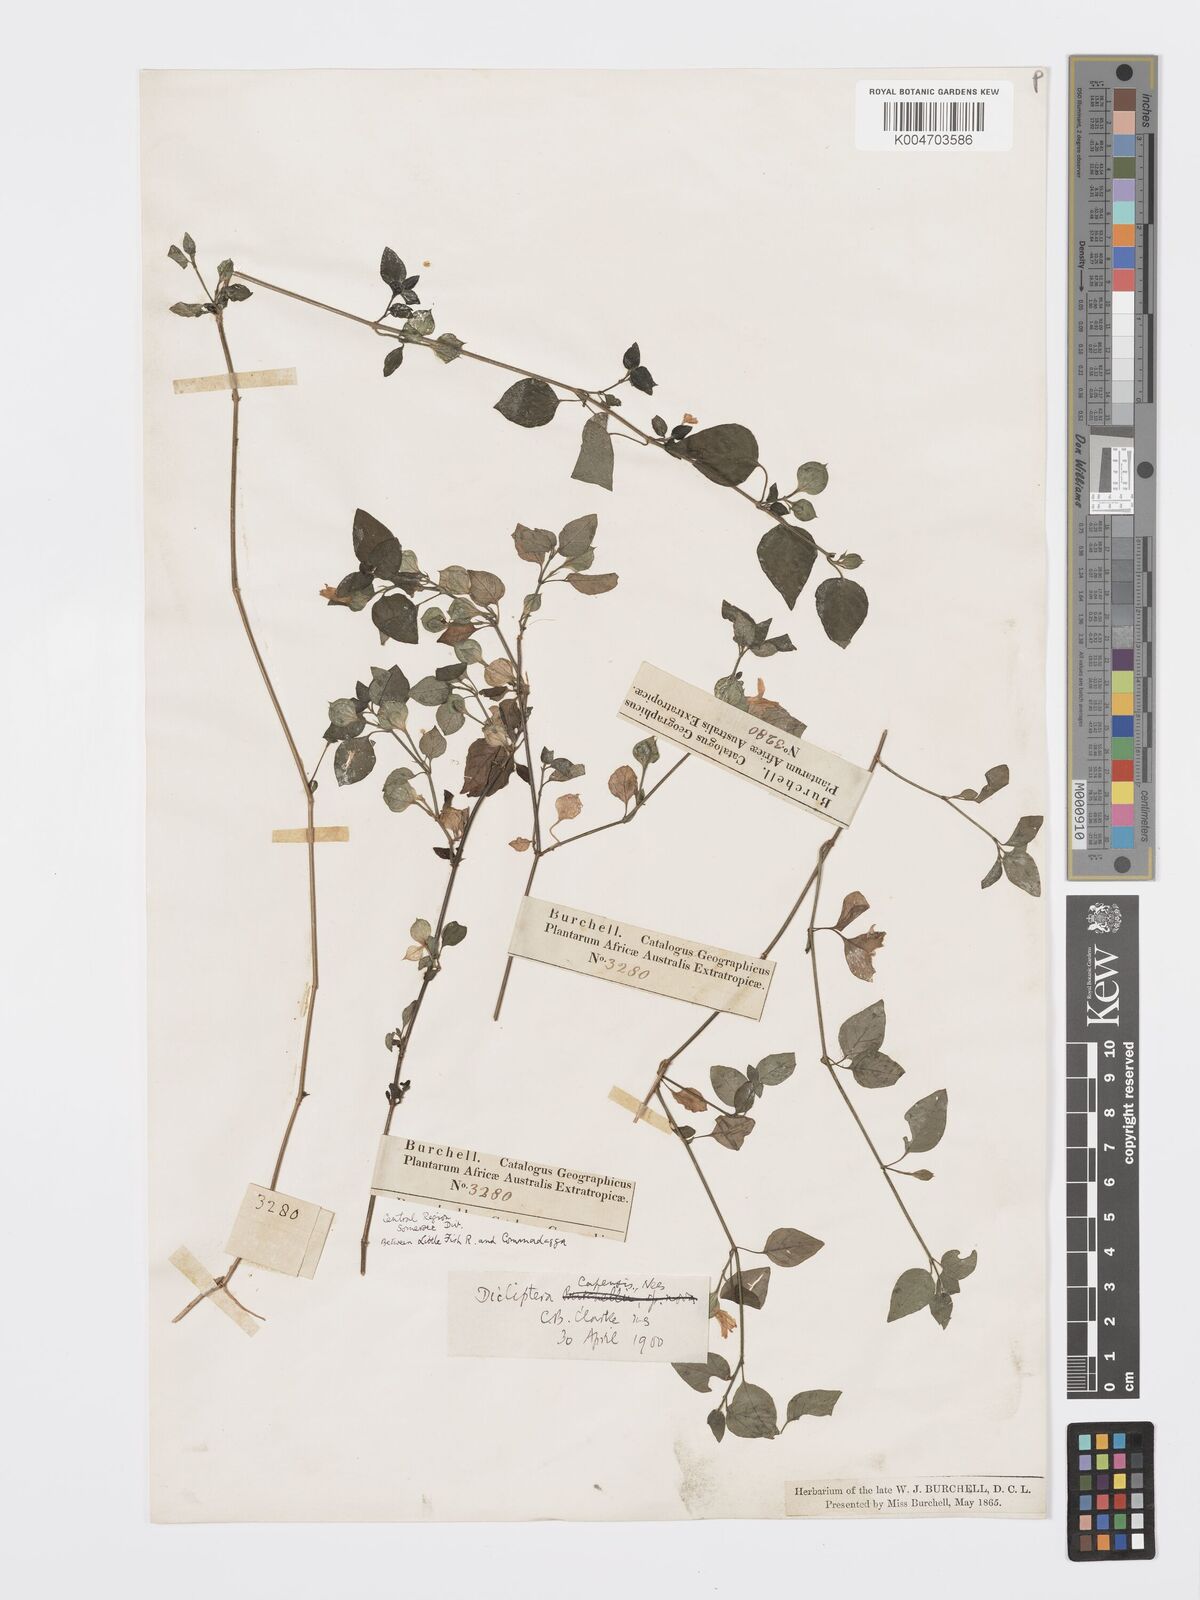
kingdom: Plantae
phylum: Tracheophyta
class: Magnoliopsida
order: Lamiales
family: Acanthaceae
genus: Dicliptera
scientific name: Dicliptera capensis
